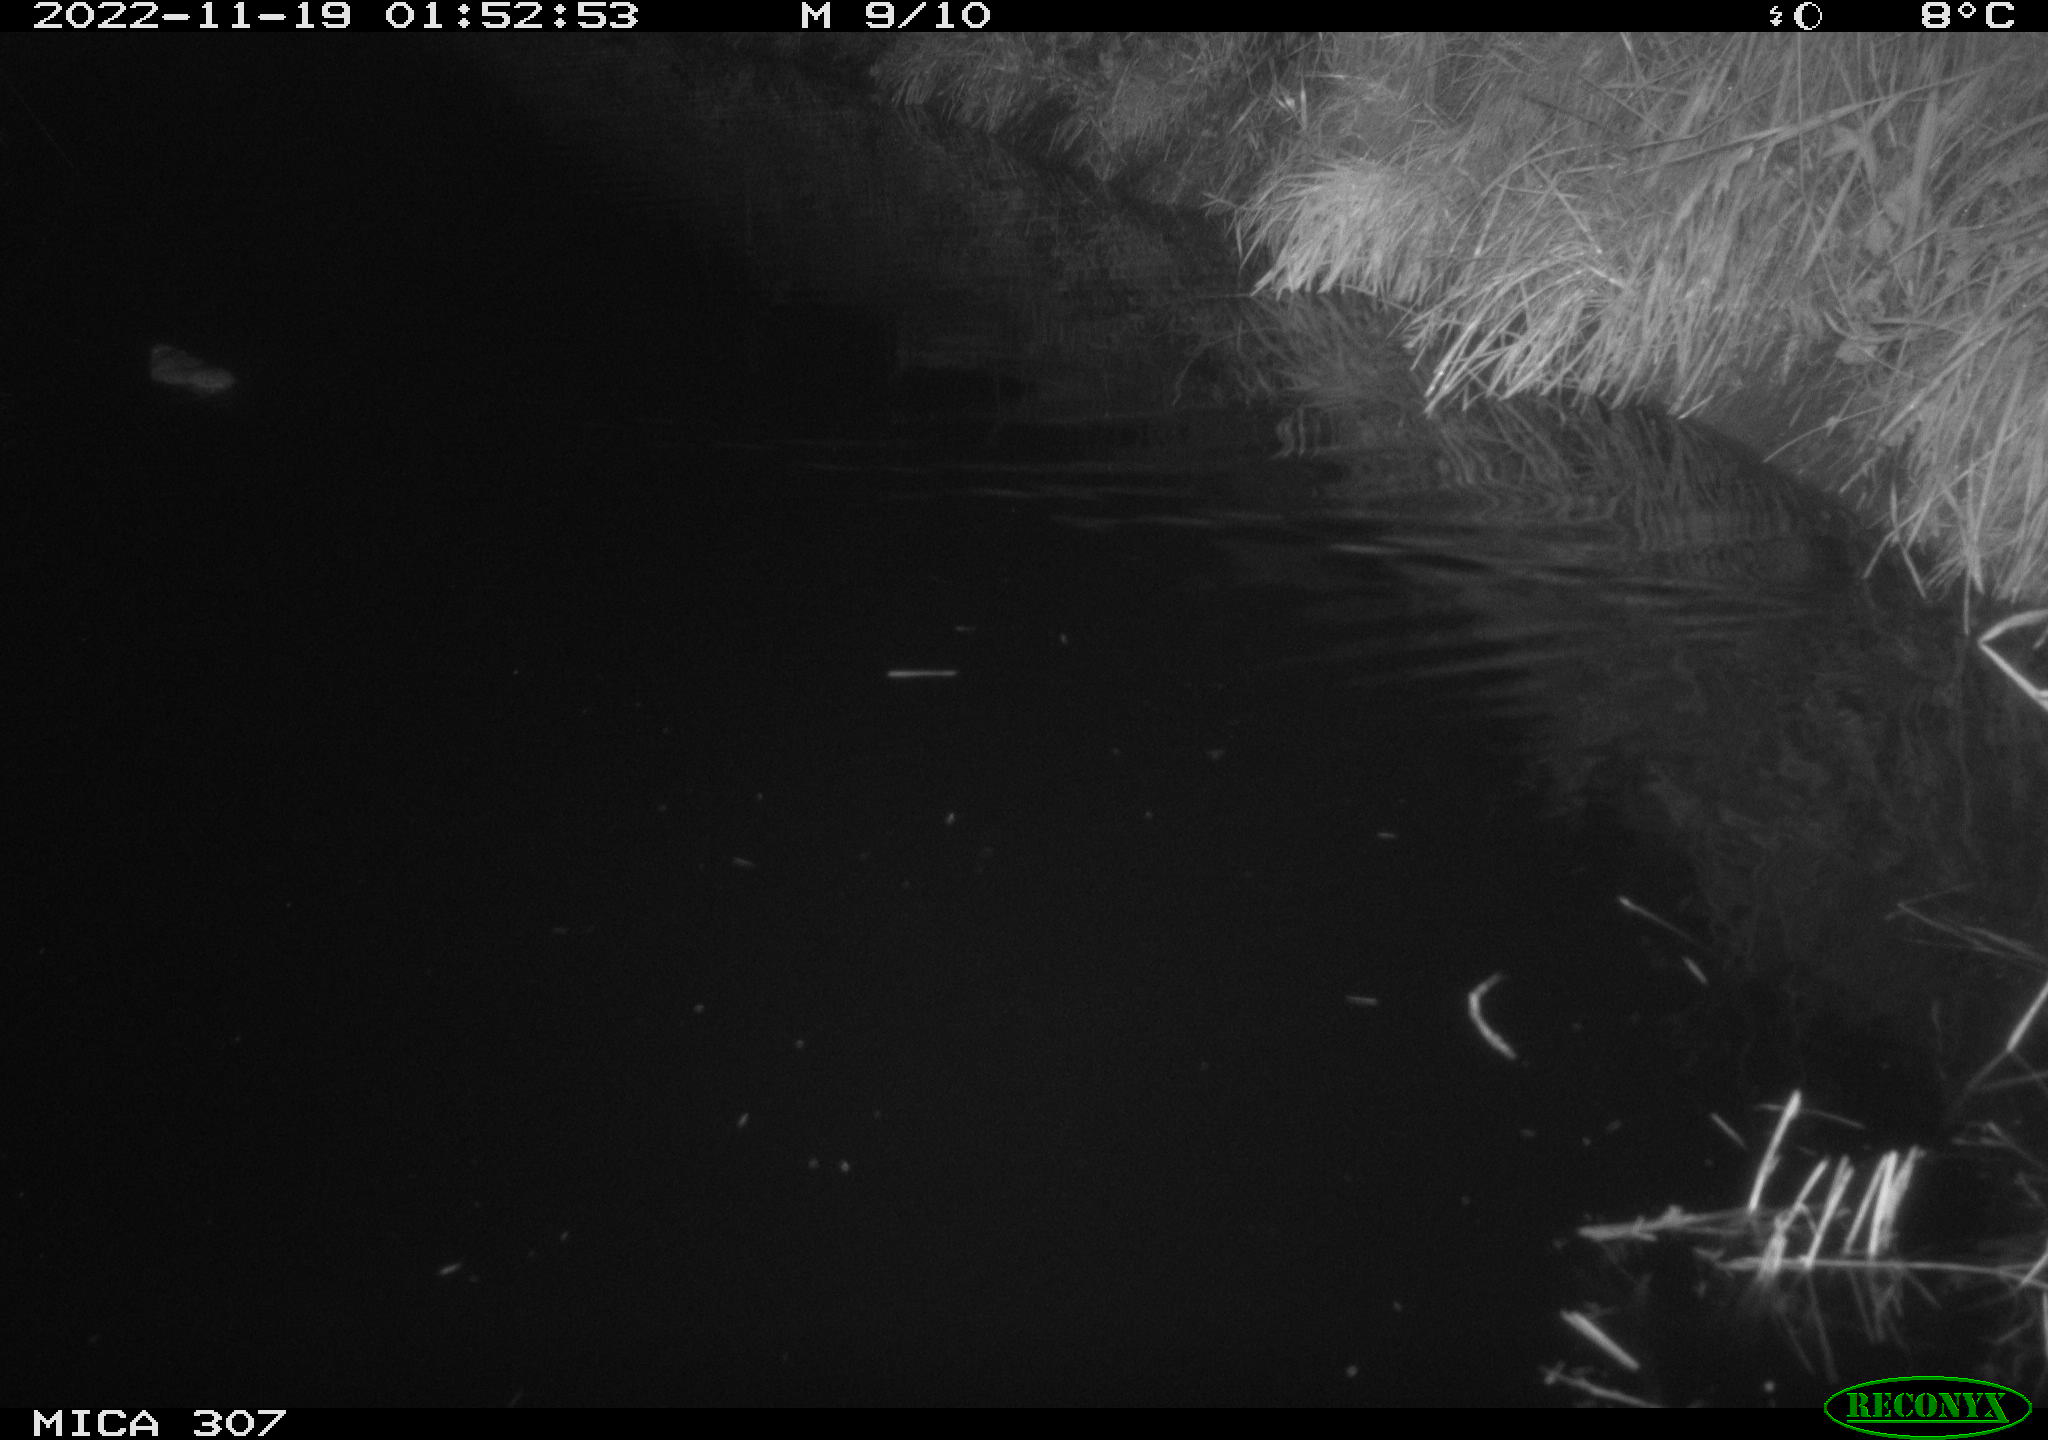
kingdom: Animalia
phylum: Chordata
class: Mammalia
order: Rodentia
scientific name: Rodentia
